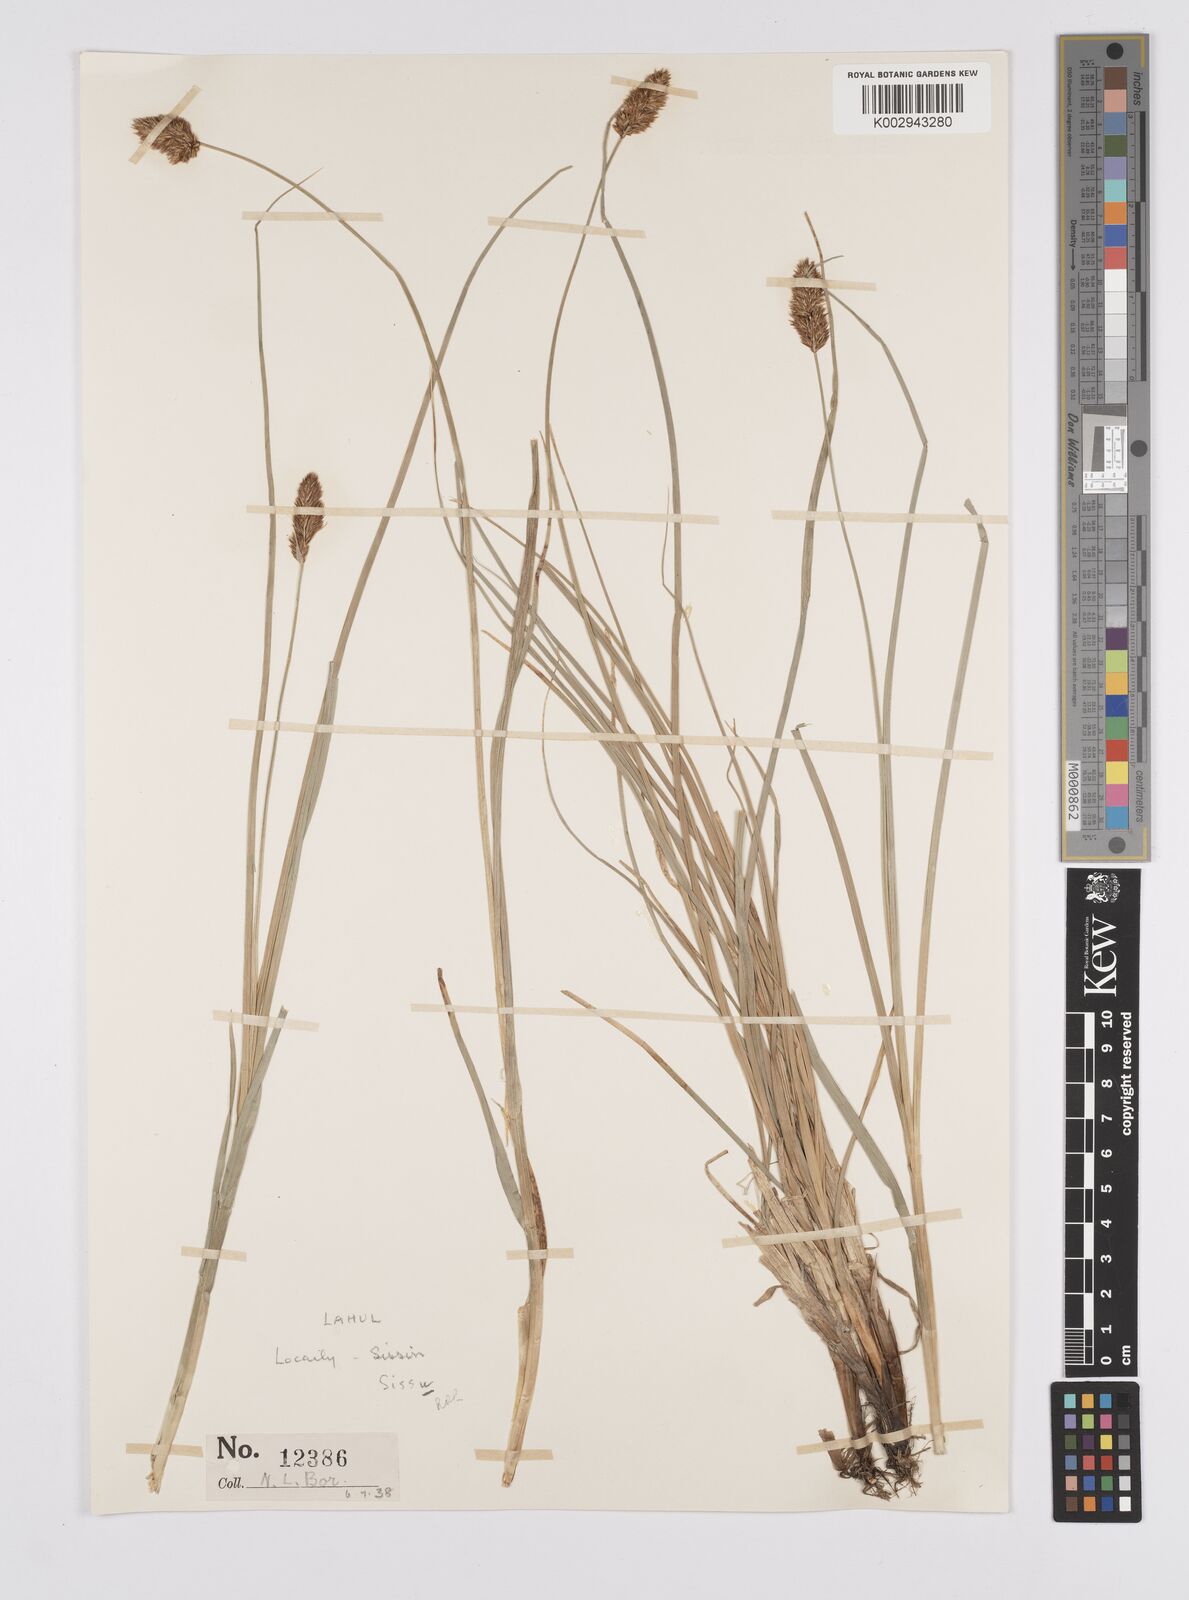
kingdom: Plantae
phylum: Tracheophyta
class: Liliopsida
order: Poales
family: Cyperaceae
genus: Carex
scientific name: Carex vulpinaris
